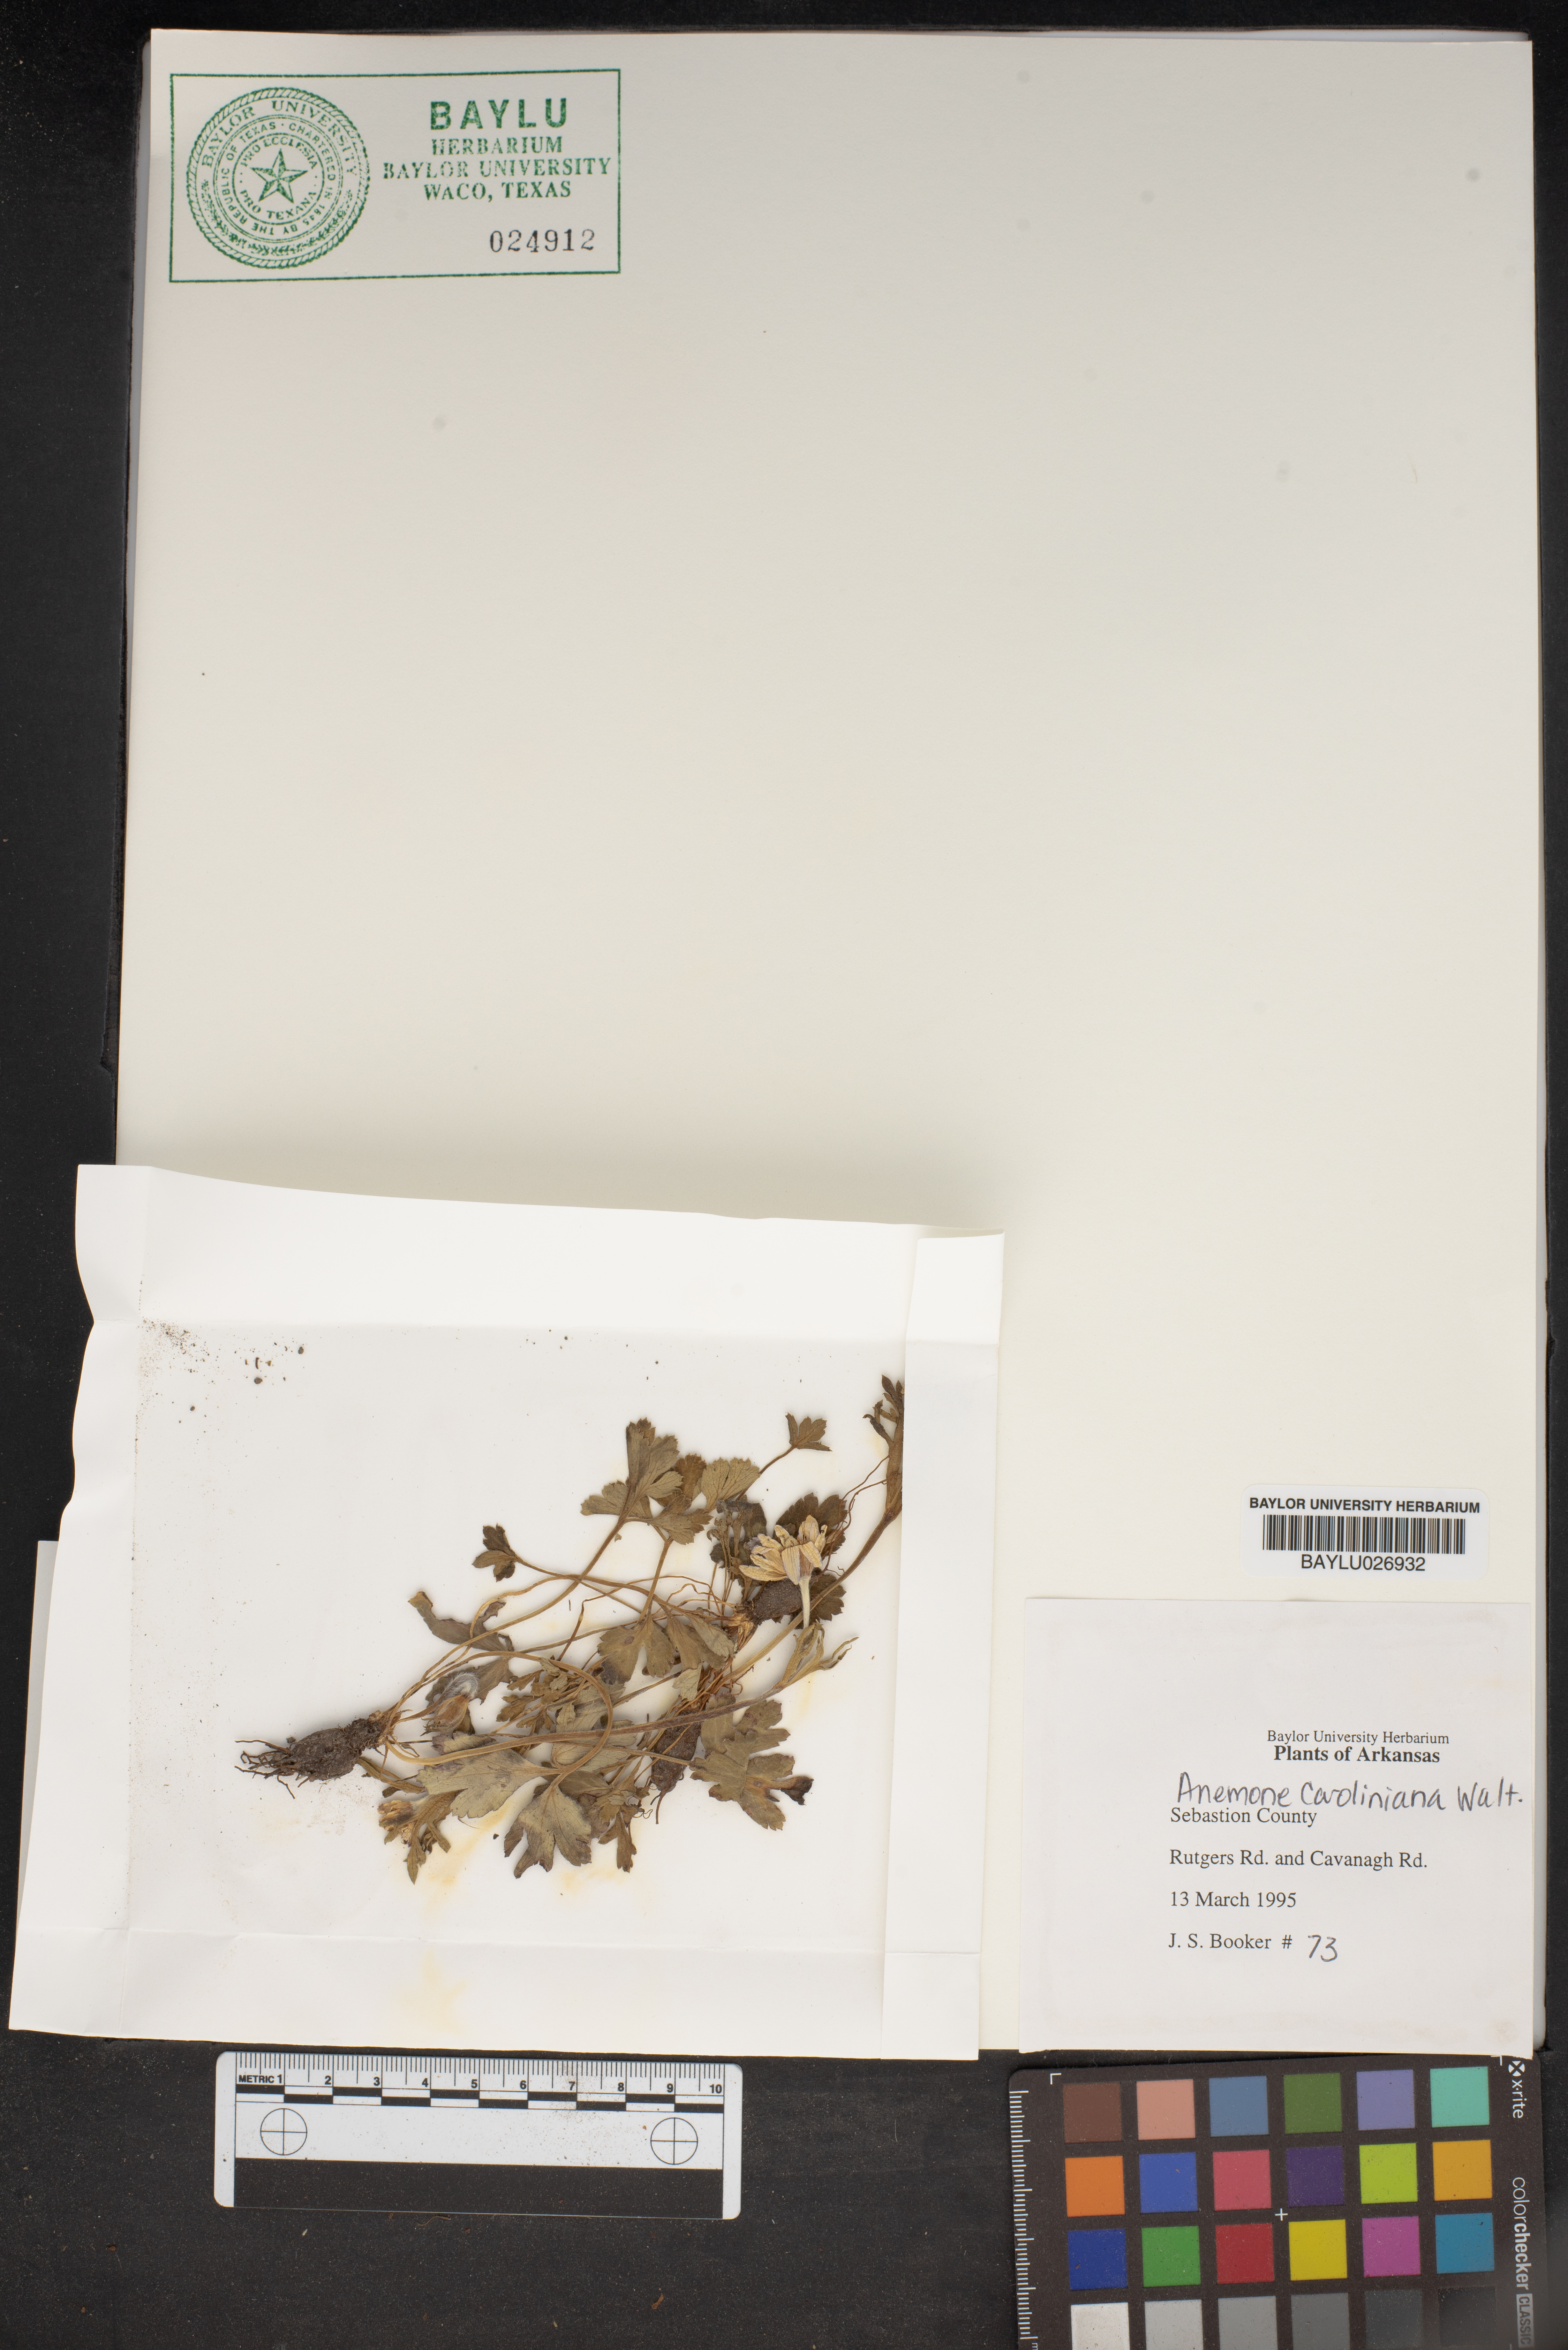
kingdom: Plantae
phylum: Tracheophyta
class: Magnoliopsida
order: Ranunculales
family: Ranunculaceae
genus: Anemone
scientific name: Anemone caroliniana
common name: Carolina anemone
